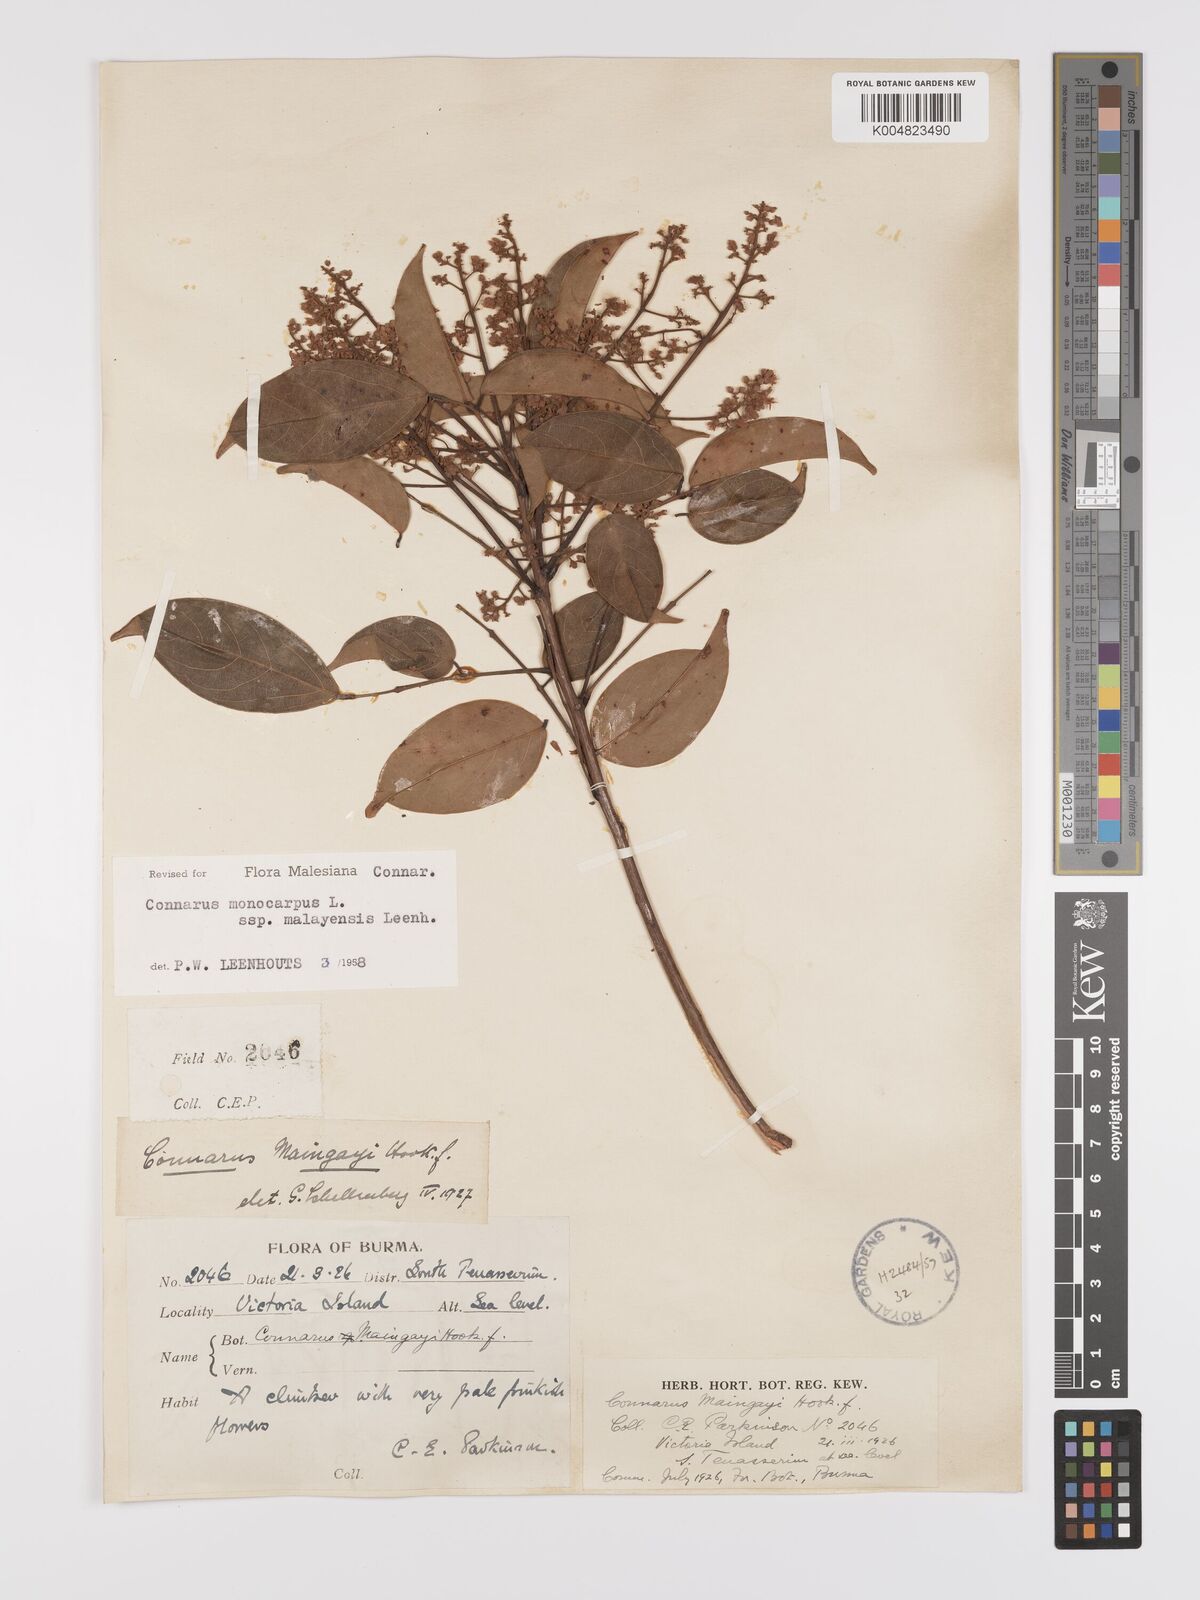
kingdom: Plantae
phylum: Tracheophyta
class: Magnoliopsida
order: Oxalidales
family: Connaraceae
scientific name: Connaraceae
